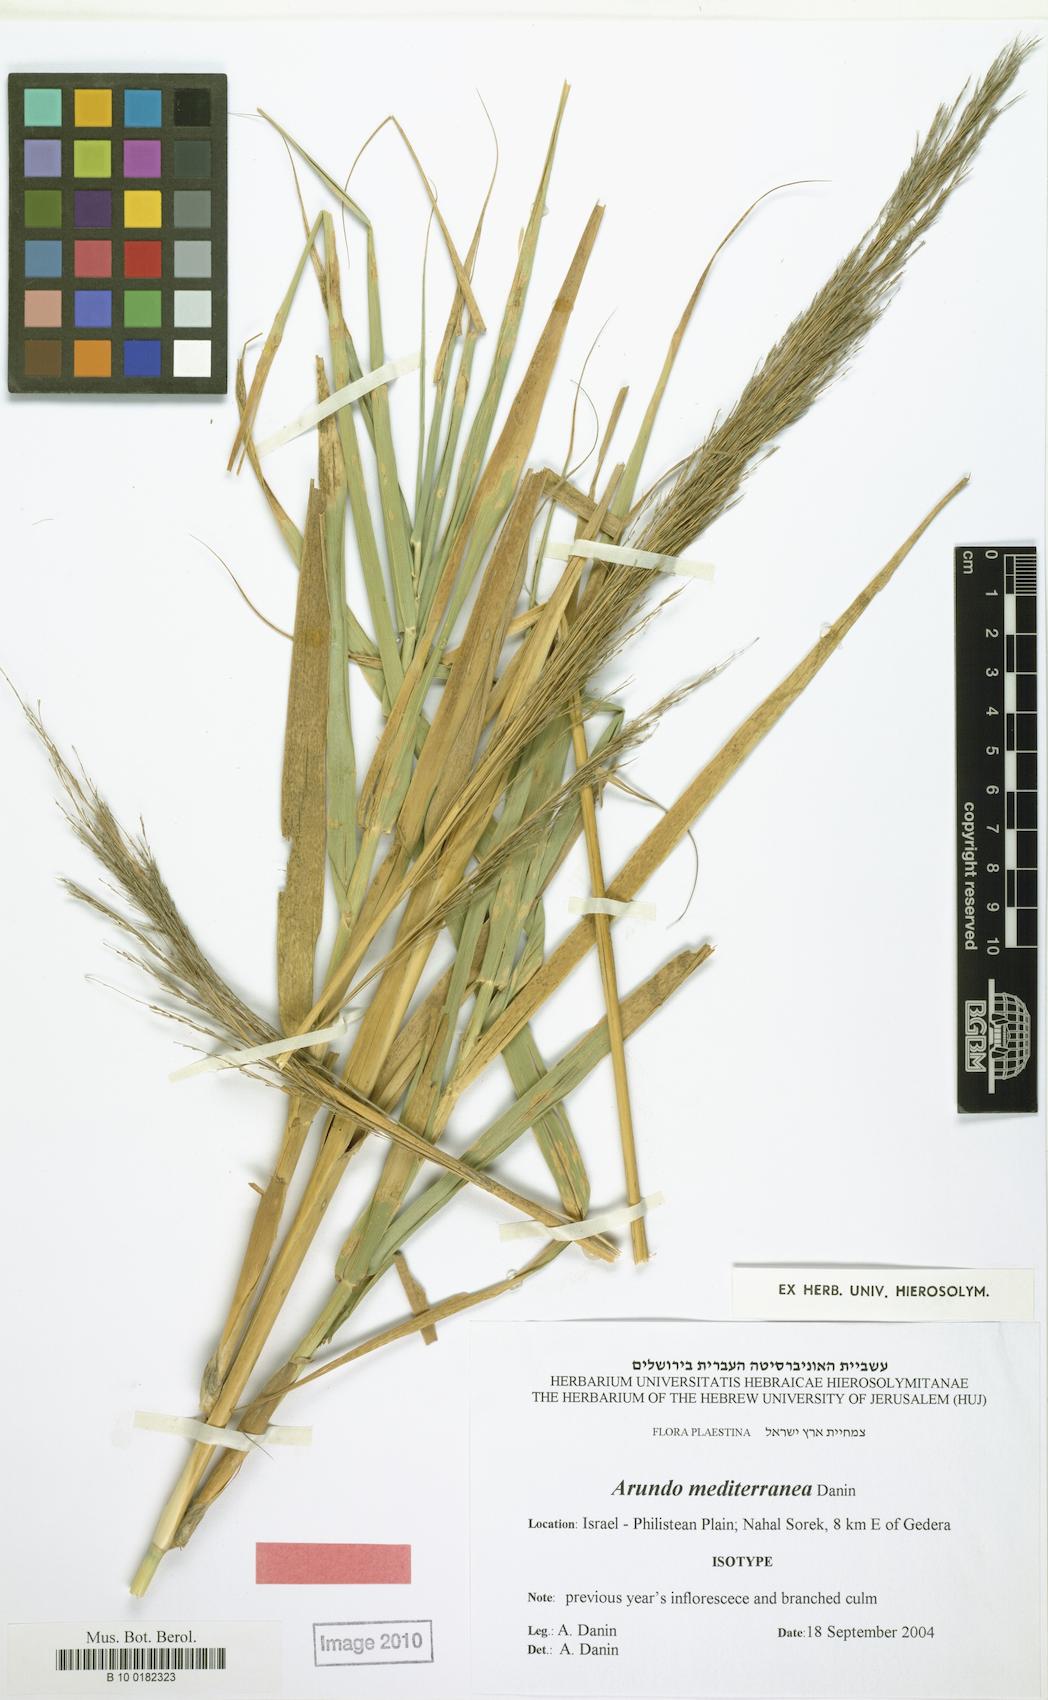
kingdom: Plantae
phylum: Tracheophyta
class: Liliopsida
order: Poales
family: Poaceae
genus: Arundo
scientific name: Arundo micrantha
